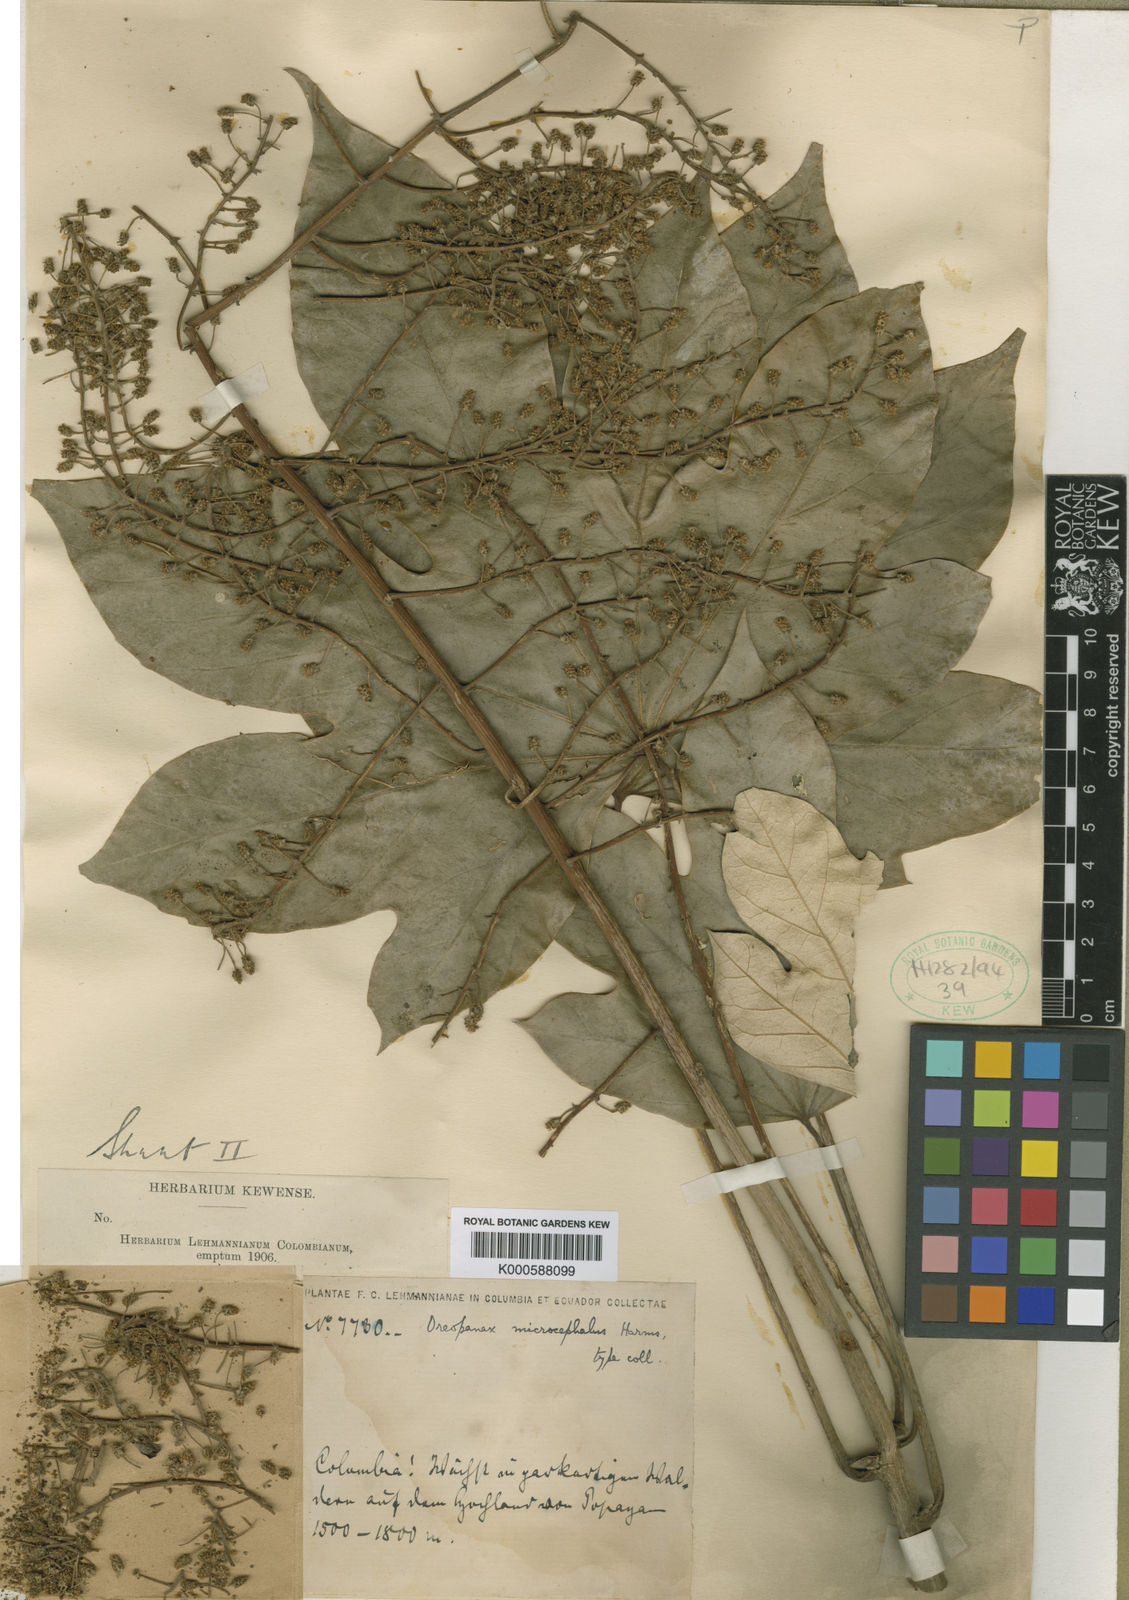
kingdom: Plantae
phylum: Tracheophyta
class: Magnoliopsida
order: Apiales
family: Araliaceae
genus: Oreopanax
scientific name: Oreopanax capitatus
